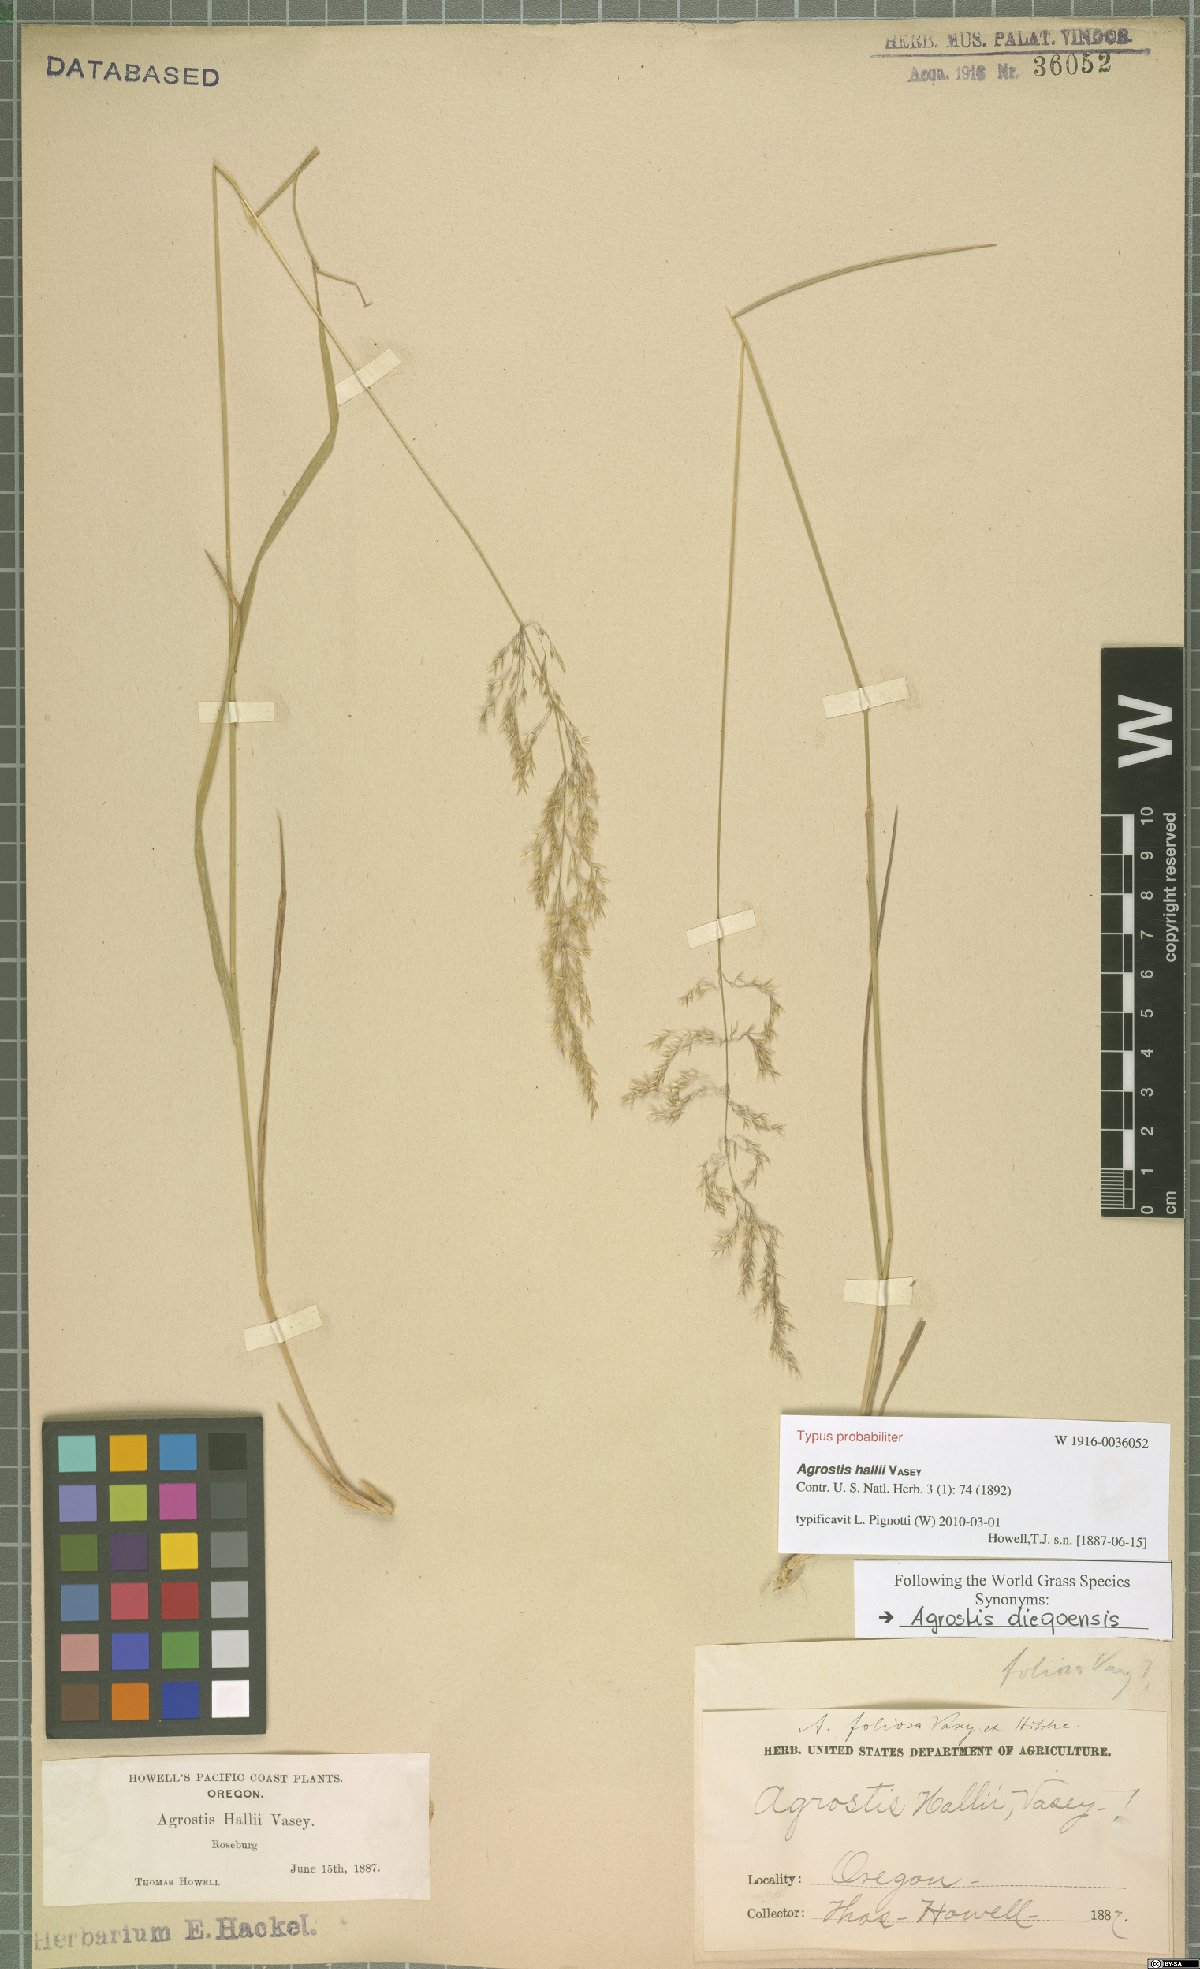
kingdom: Plantae
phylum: Tracheophyta
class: Liliopsida
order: Poales
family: Poaceae
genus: Agrostis
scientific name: Agrostis hallii
